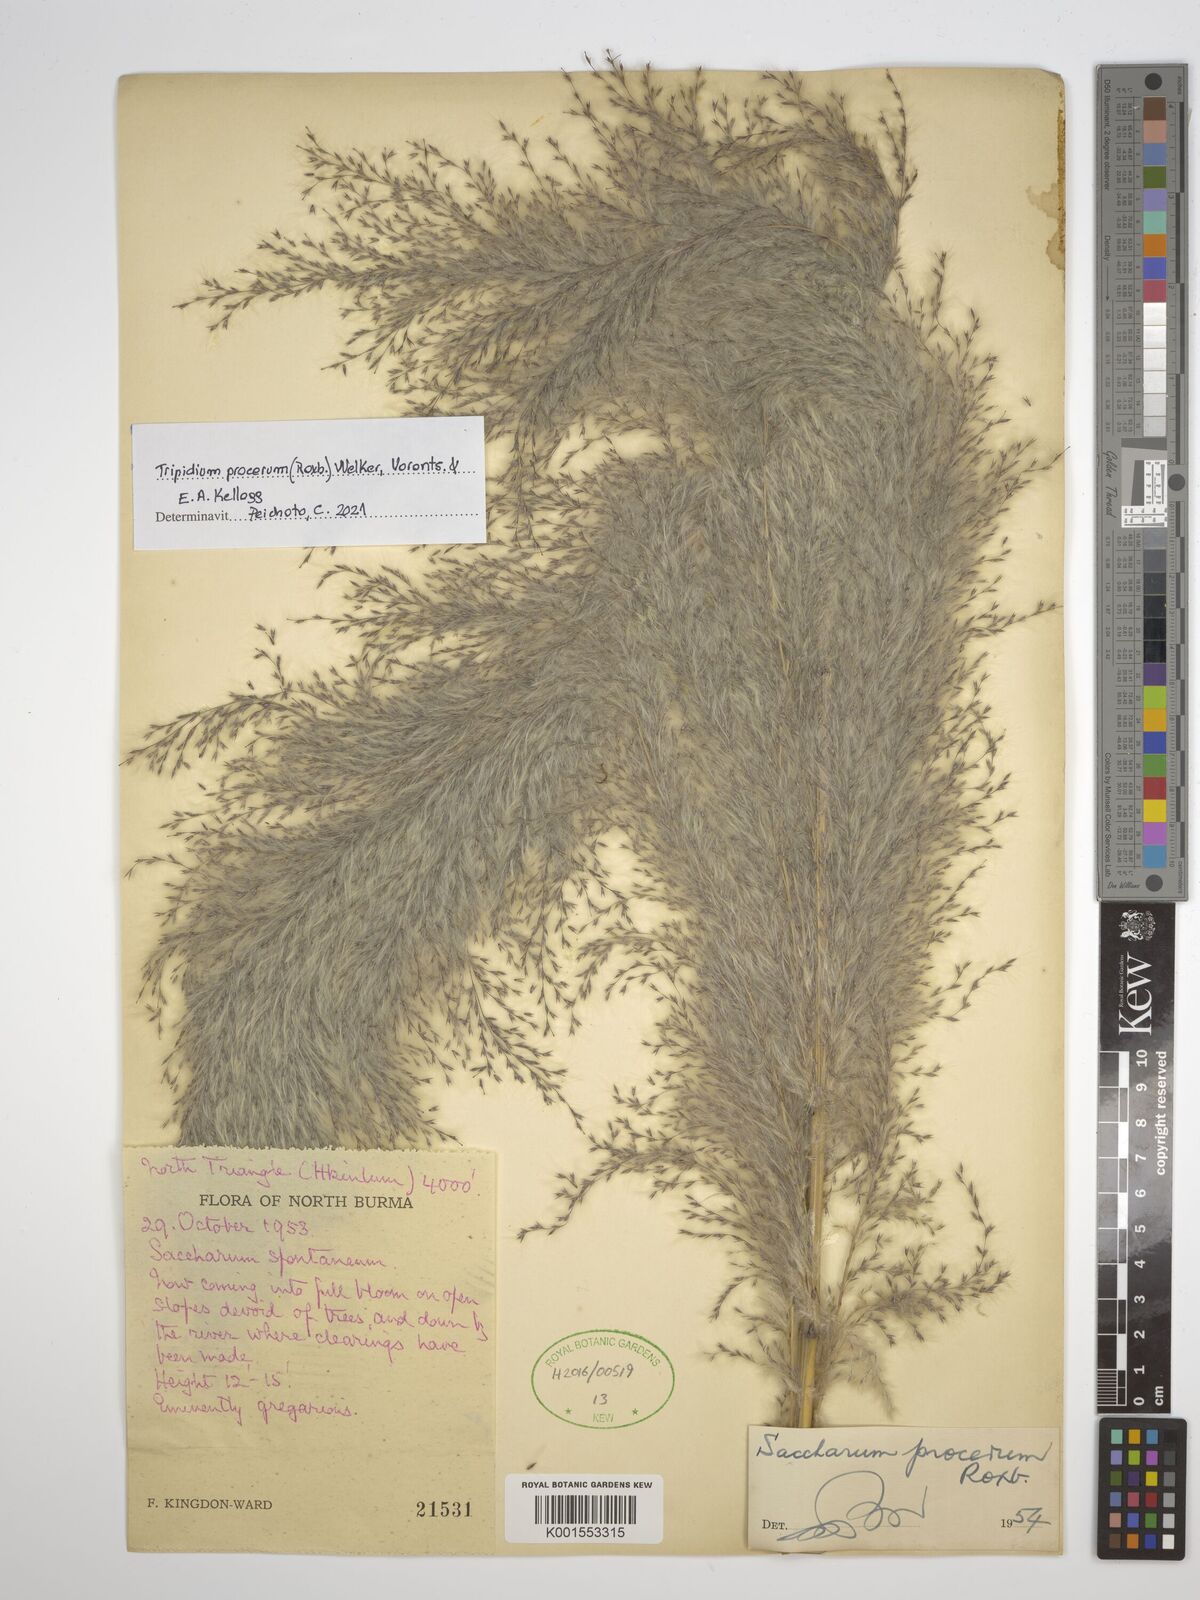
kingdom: Plantae
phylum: Tracheophyta
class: Liliopsida
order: Poales
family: Poaceae
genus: Tripidium
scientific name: Tripidium procerum
